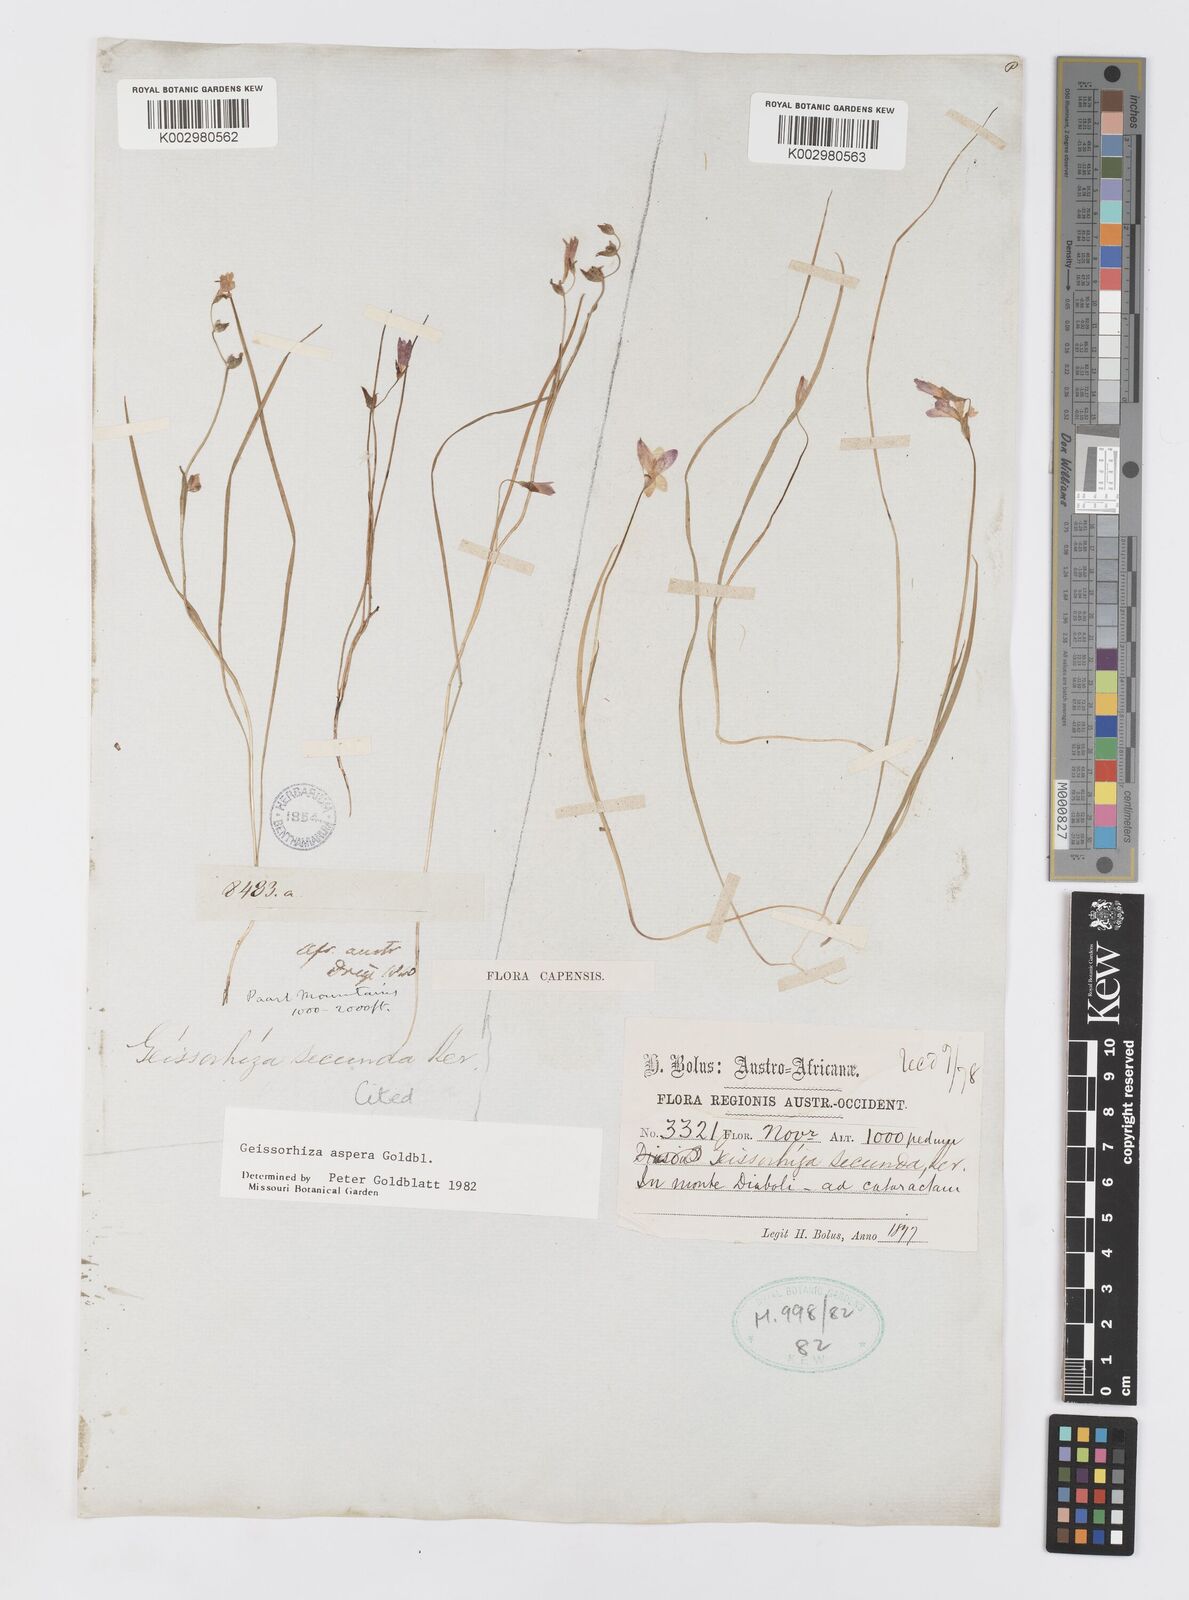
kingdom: Plantae
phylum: Tracheophyta
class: Liliopsida
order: Asparagales
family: Iridaceae
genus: Geissorhiza
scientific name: Geissorhiza aspera
